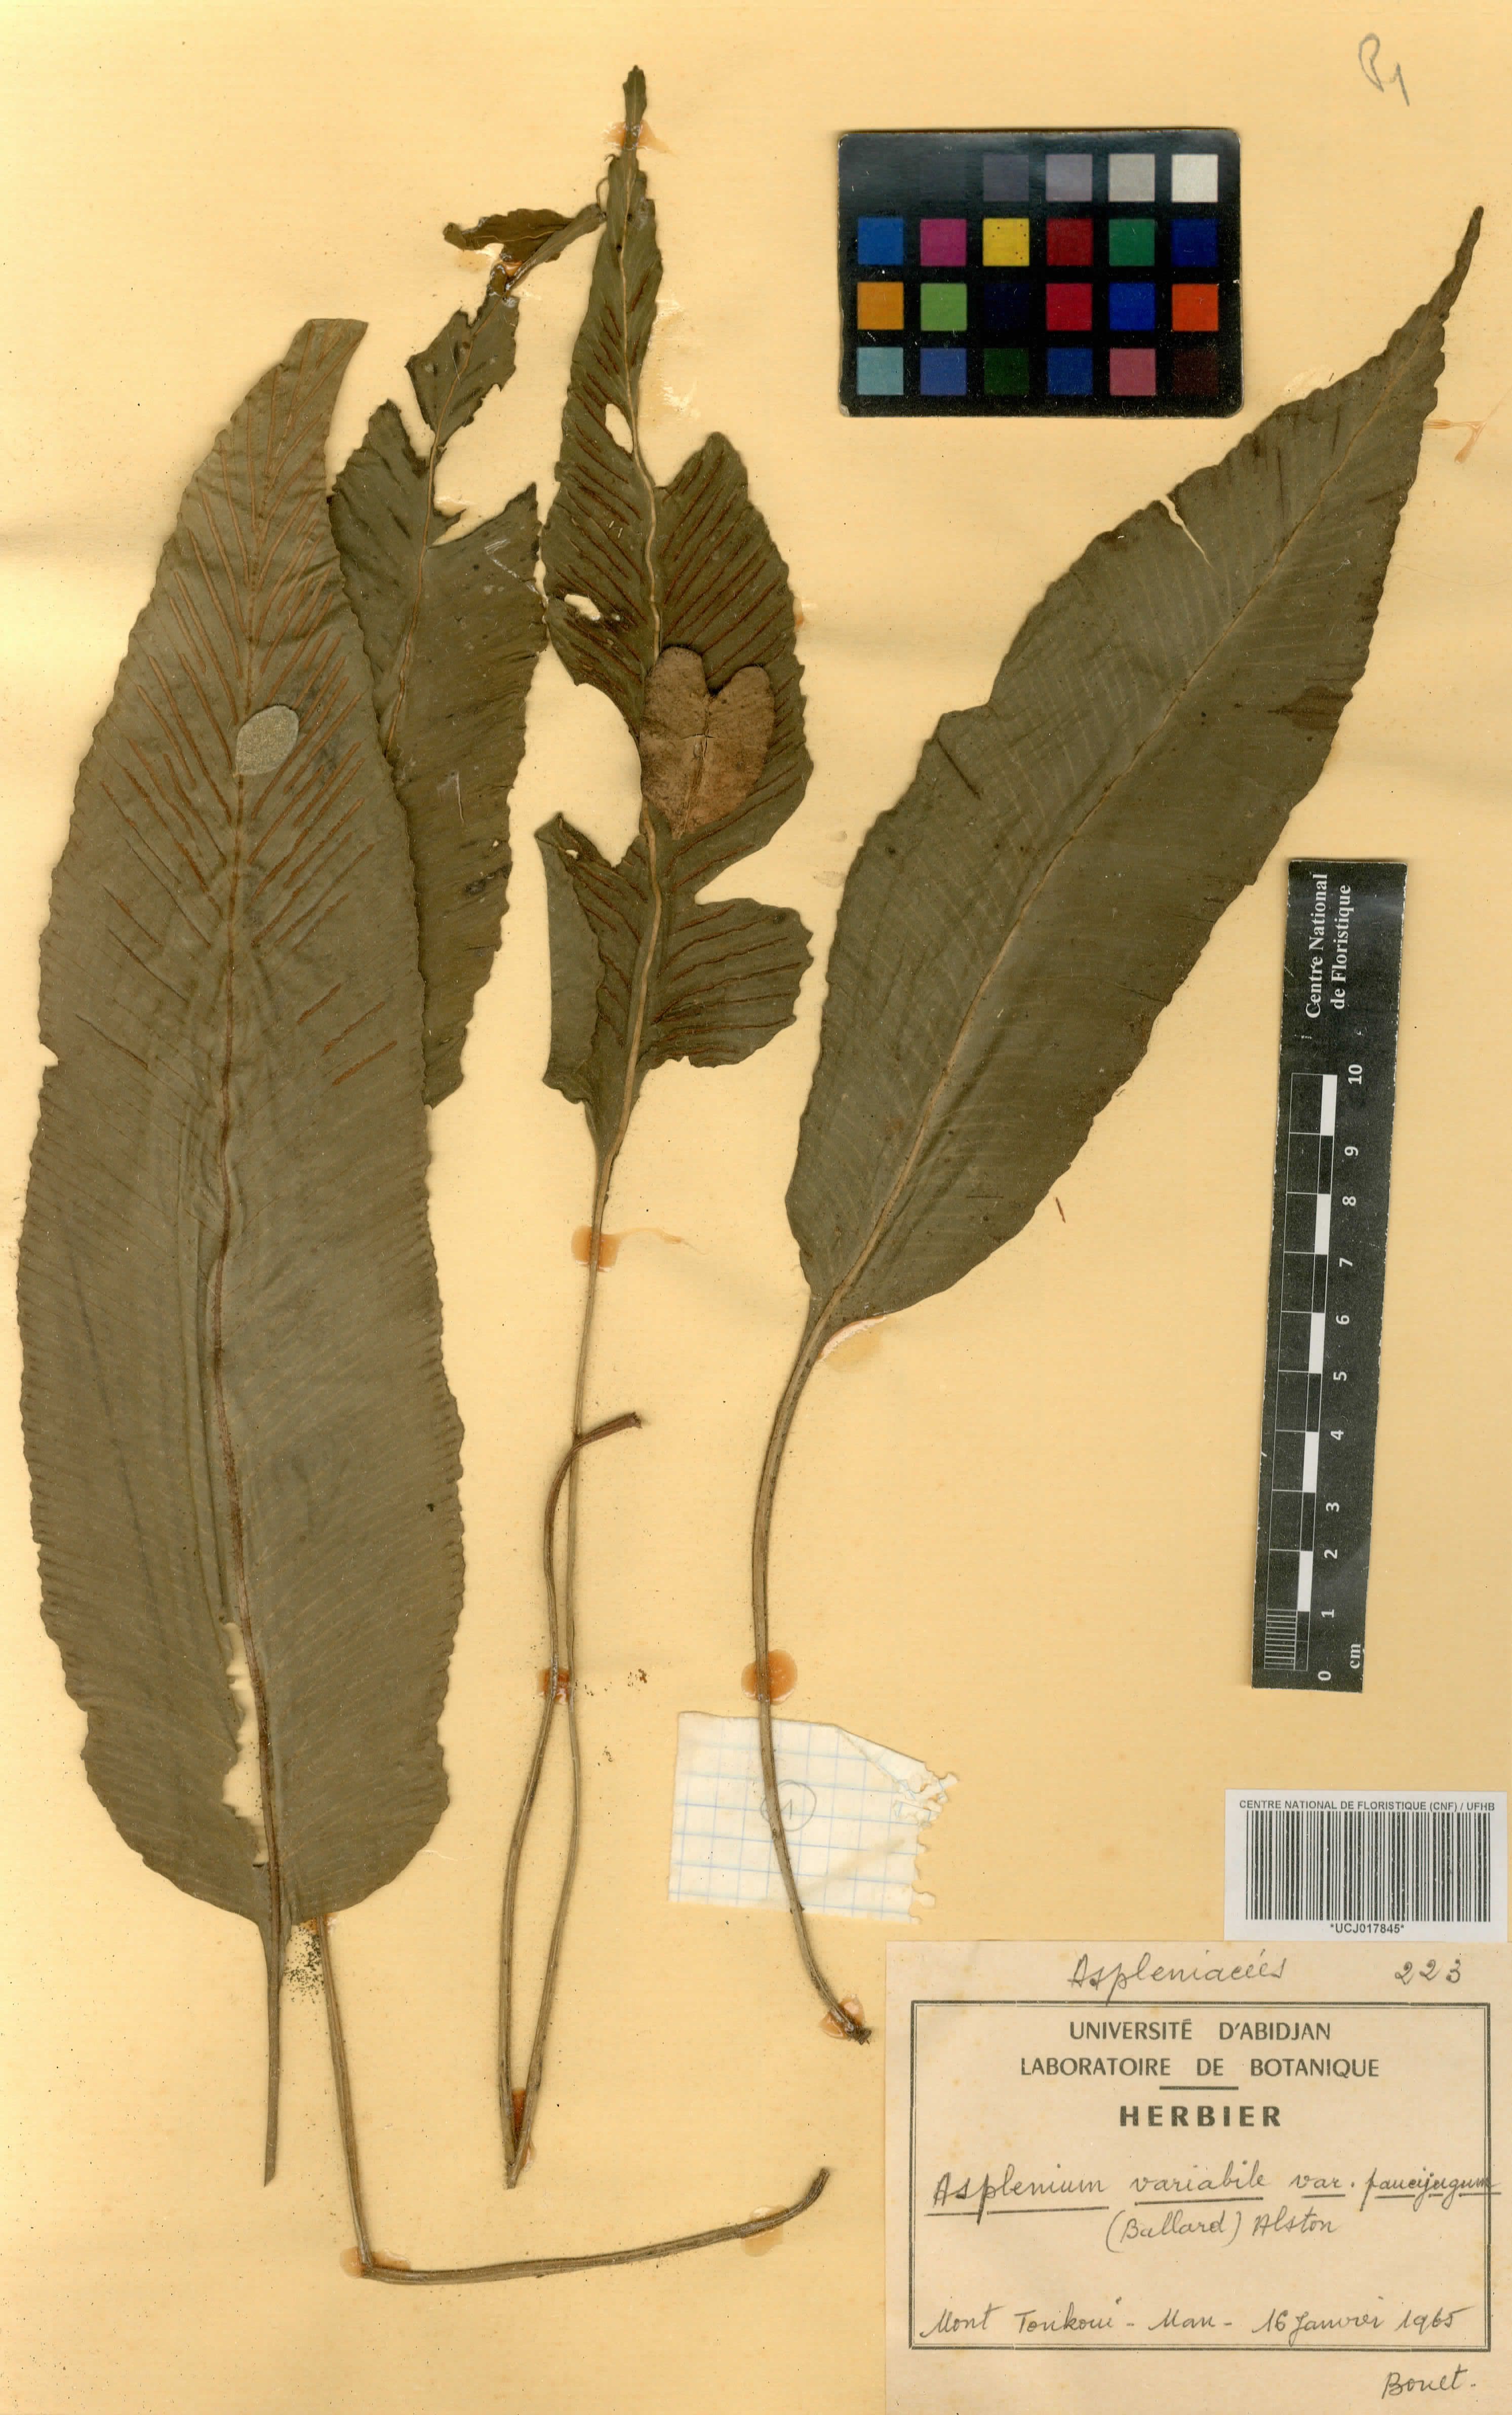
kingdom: Plantae
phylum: Tracheophyta
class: Polypodiopsida
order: Polypodiales
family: Aspleniaceae
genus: Asplenium
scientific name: Asplenium variabile
